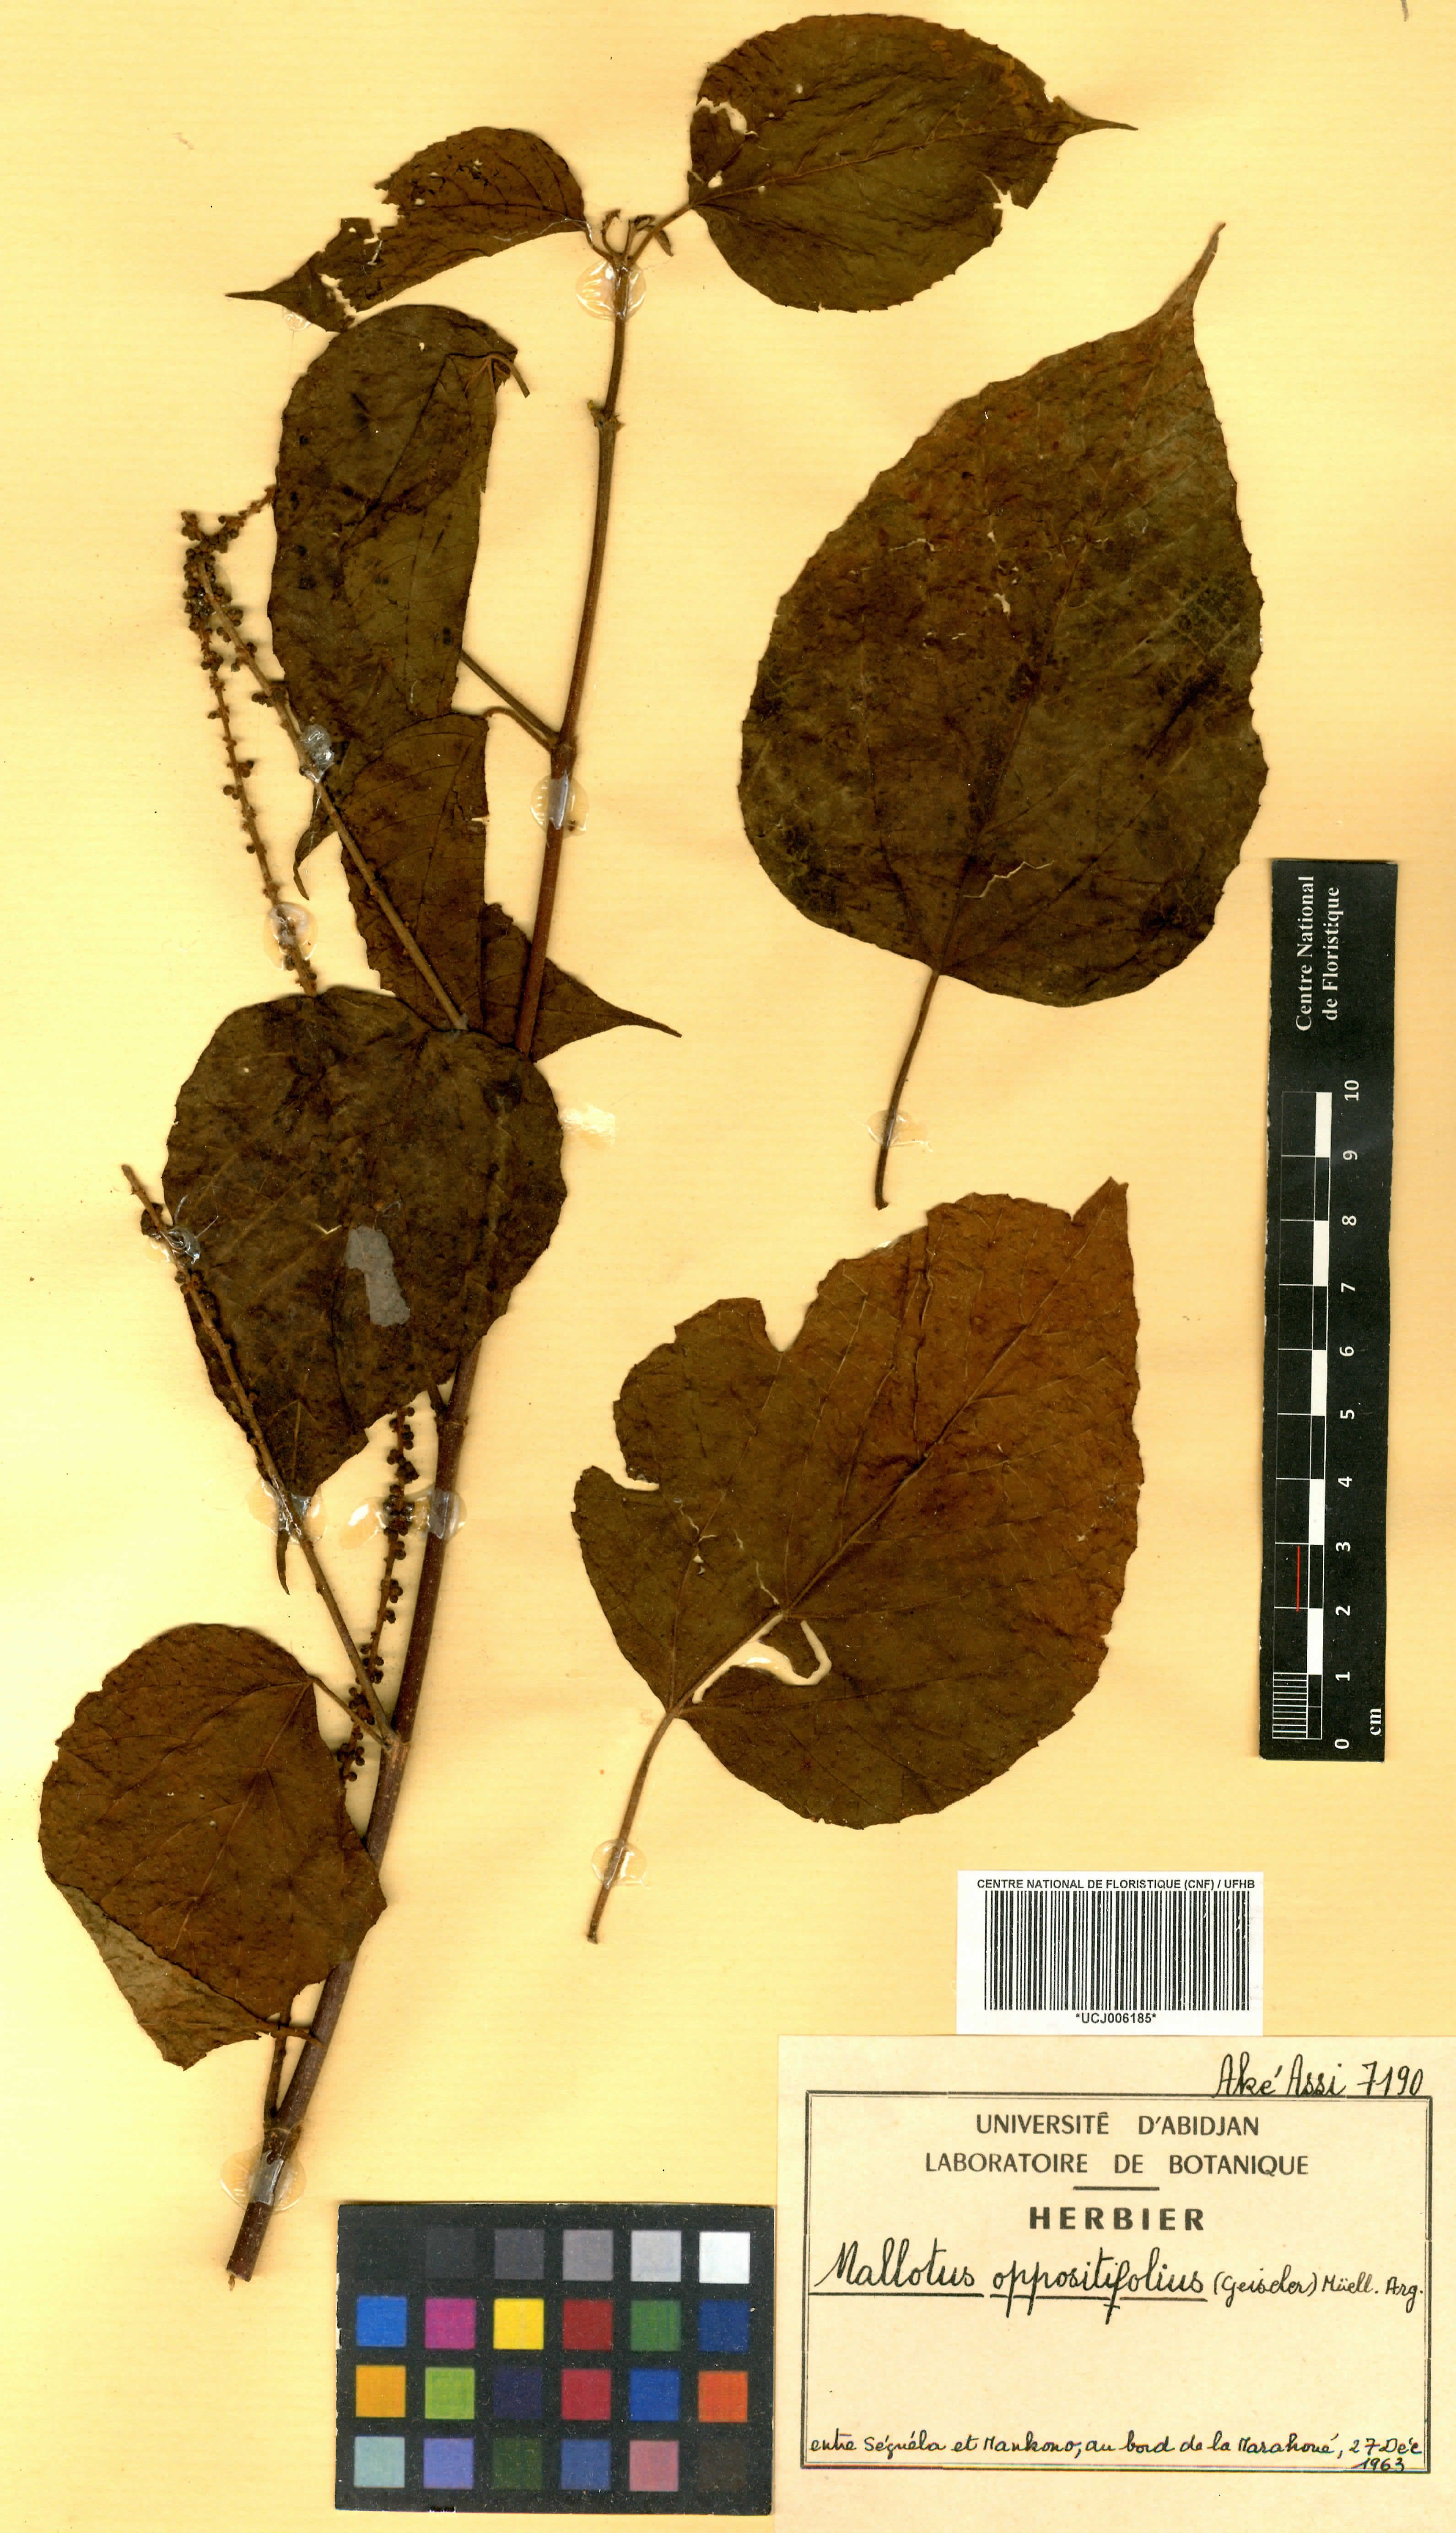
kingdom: Plantae
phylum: Tracheophyta
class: Magnoliopsida
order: Malpighiales
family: Euphorbiaceae
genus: Mallotus
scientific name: Mallotus oppositifolius
